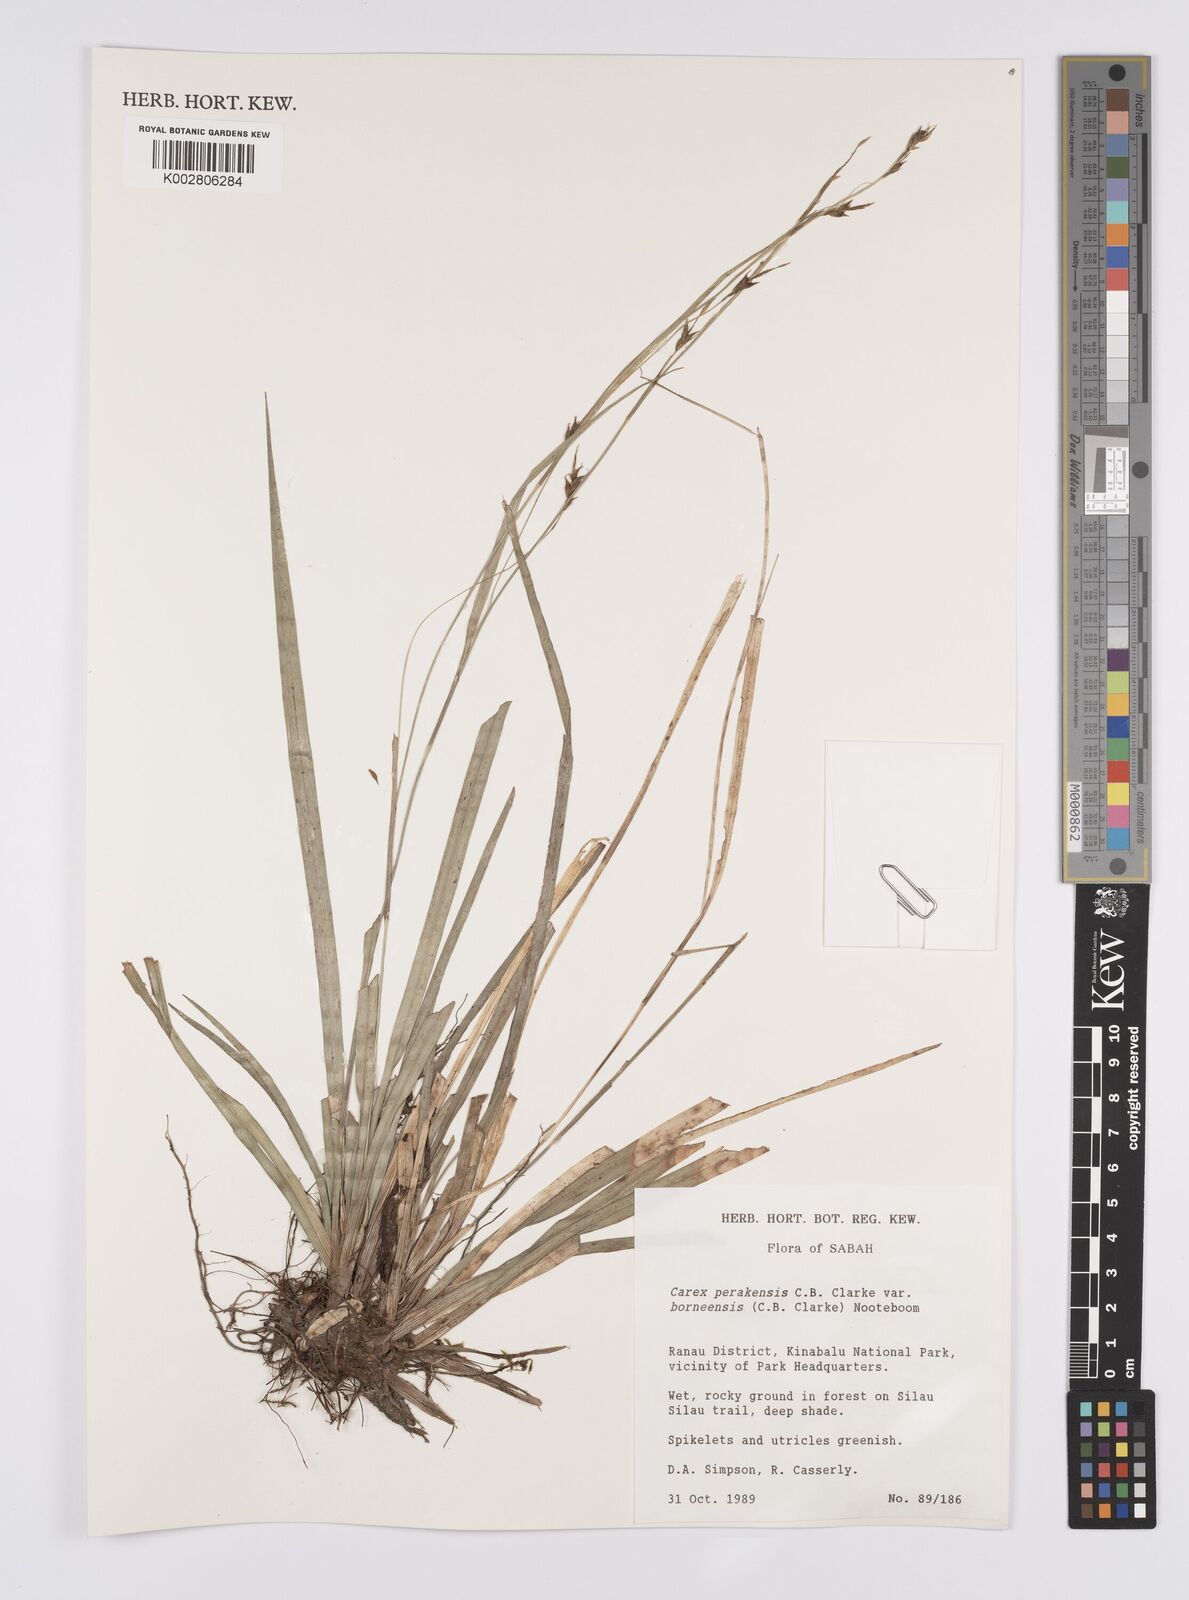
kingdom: Plantae
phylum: Tracheophyta
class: Liliopsida
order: Poales
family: Cyperaceae
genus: Carex
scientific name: Carex perakensis
